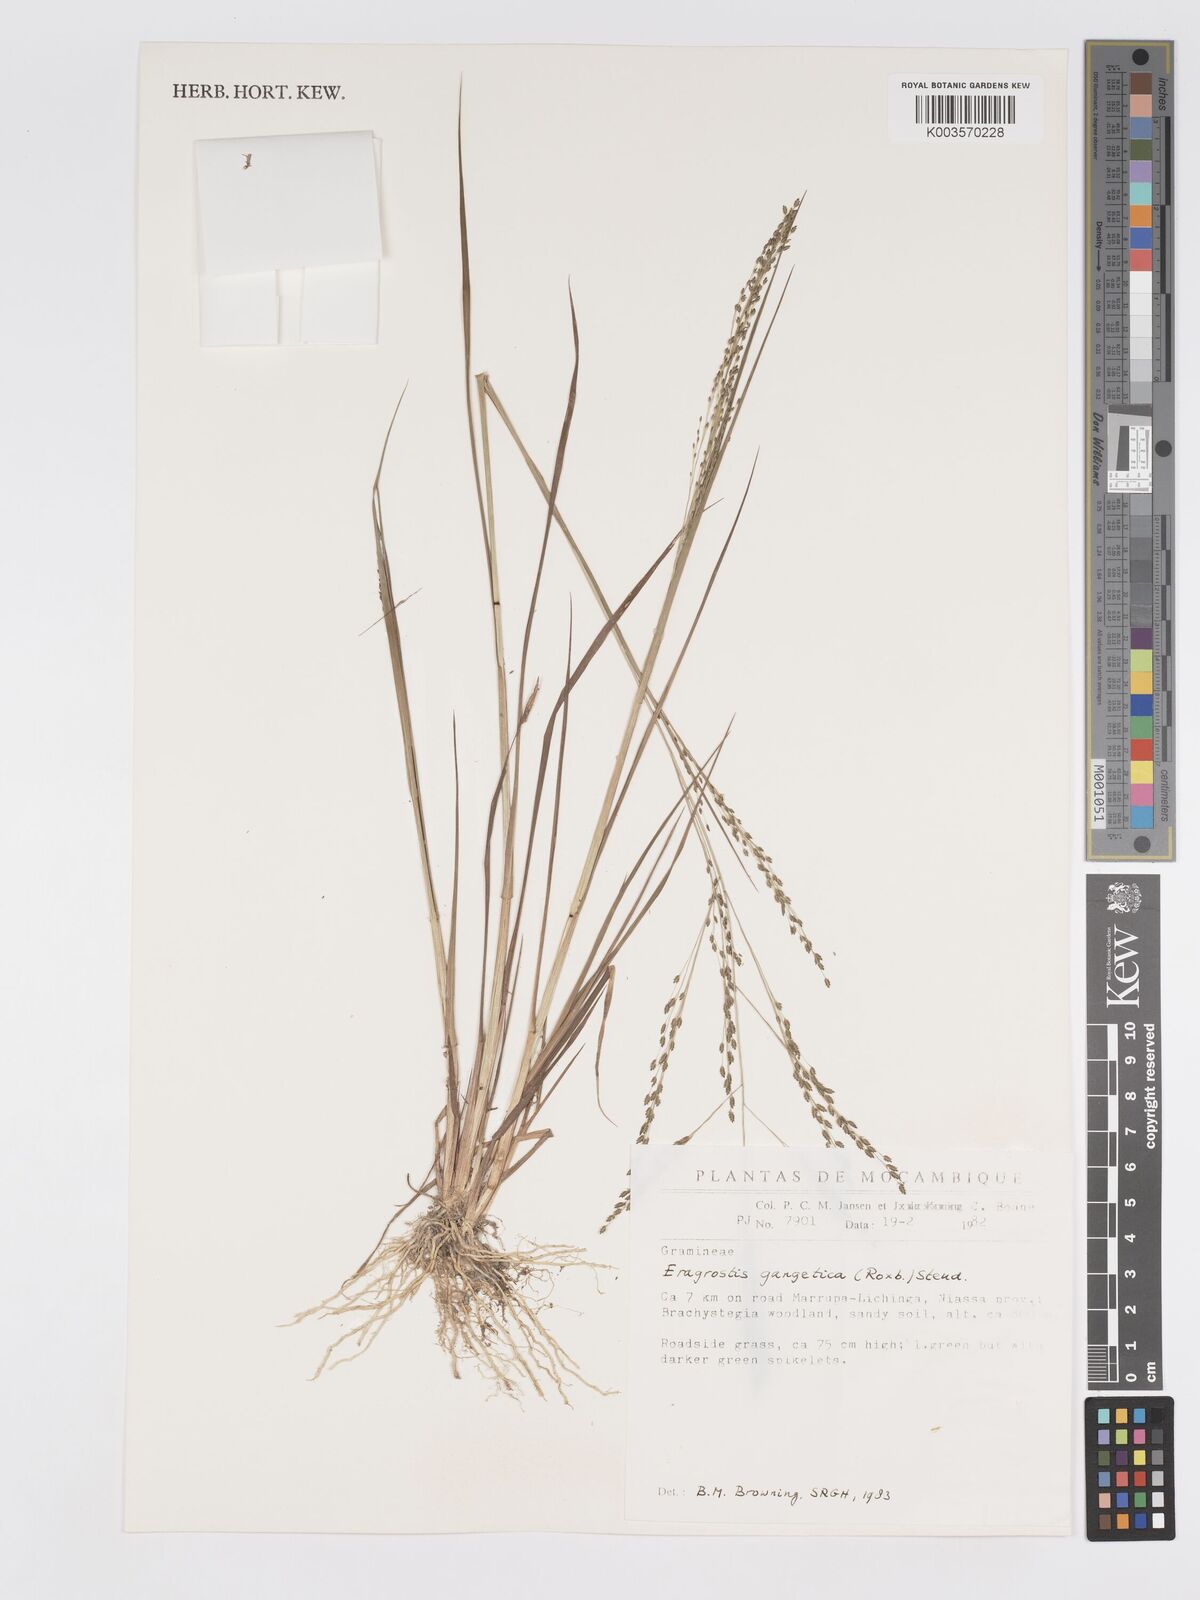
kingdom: Plantae
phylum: Tracheophyta
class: Liliopsida
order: Poales
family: Poaceae
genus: Eragrostis
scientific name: Eragrostis gangetica
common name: Slimflower lovegrass
